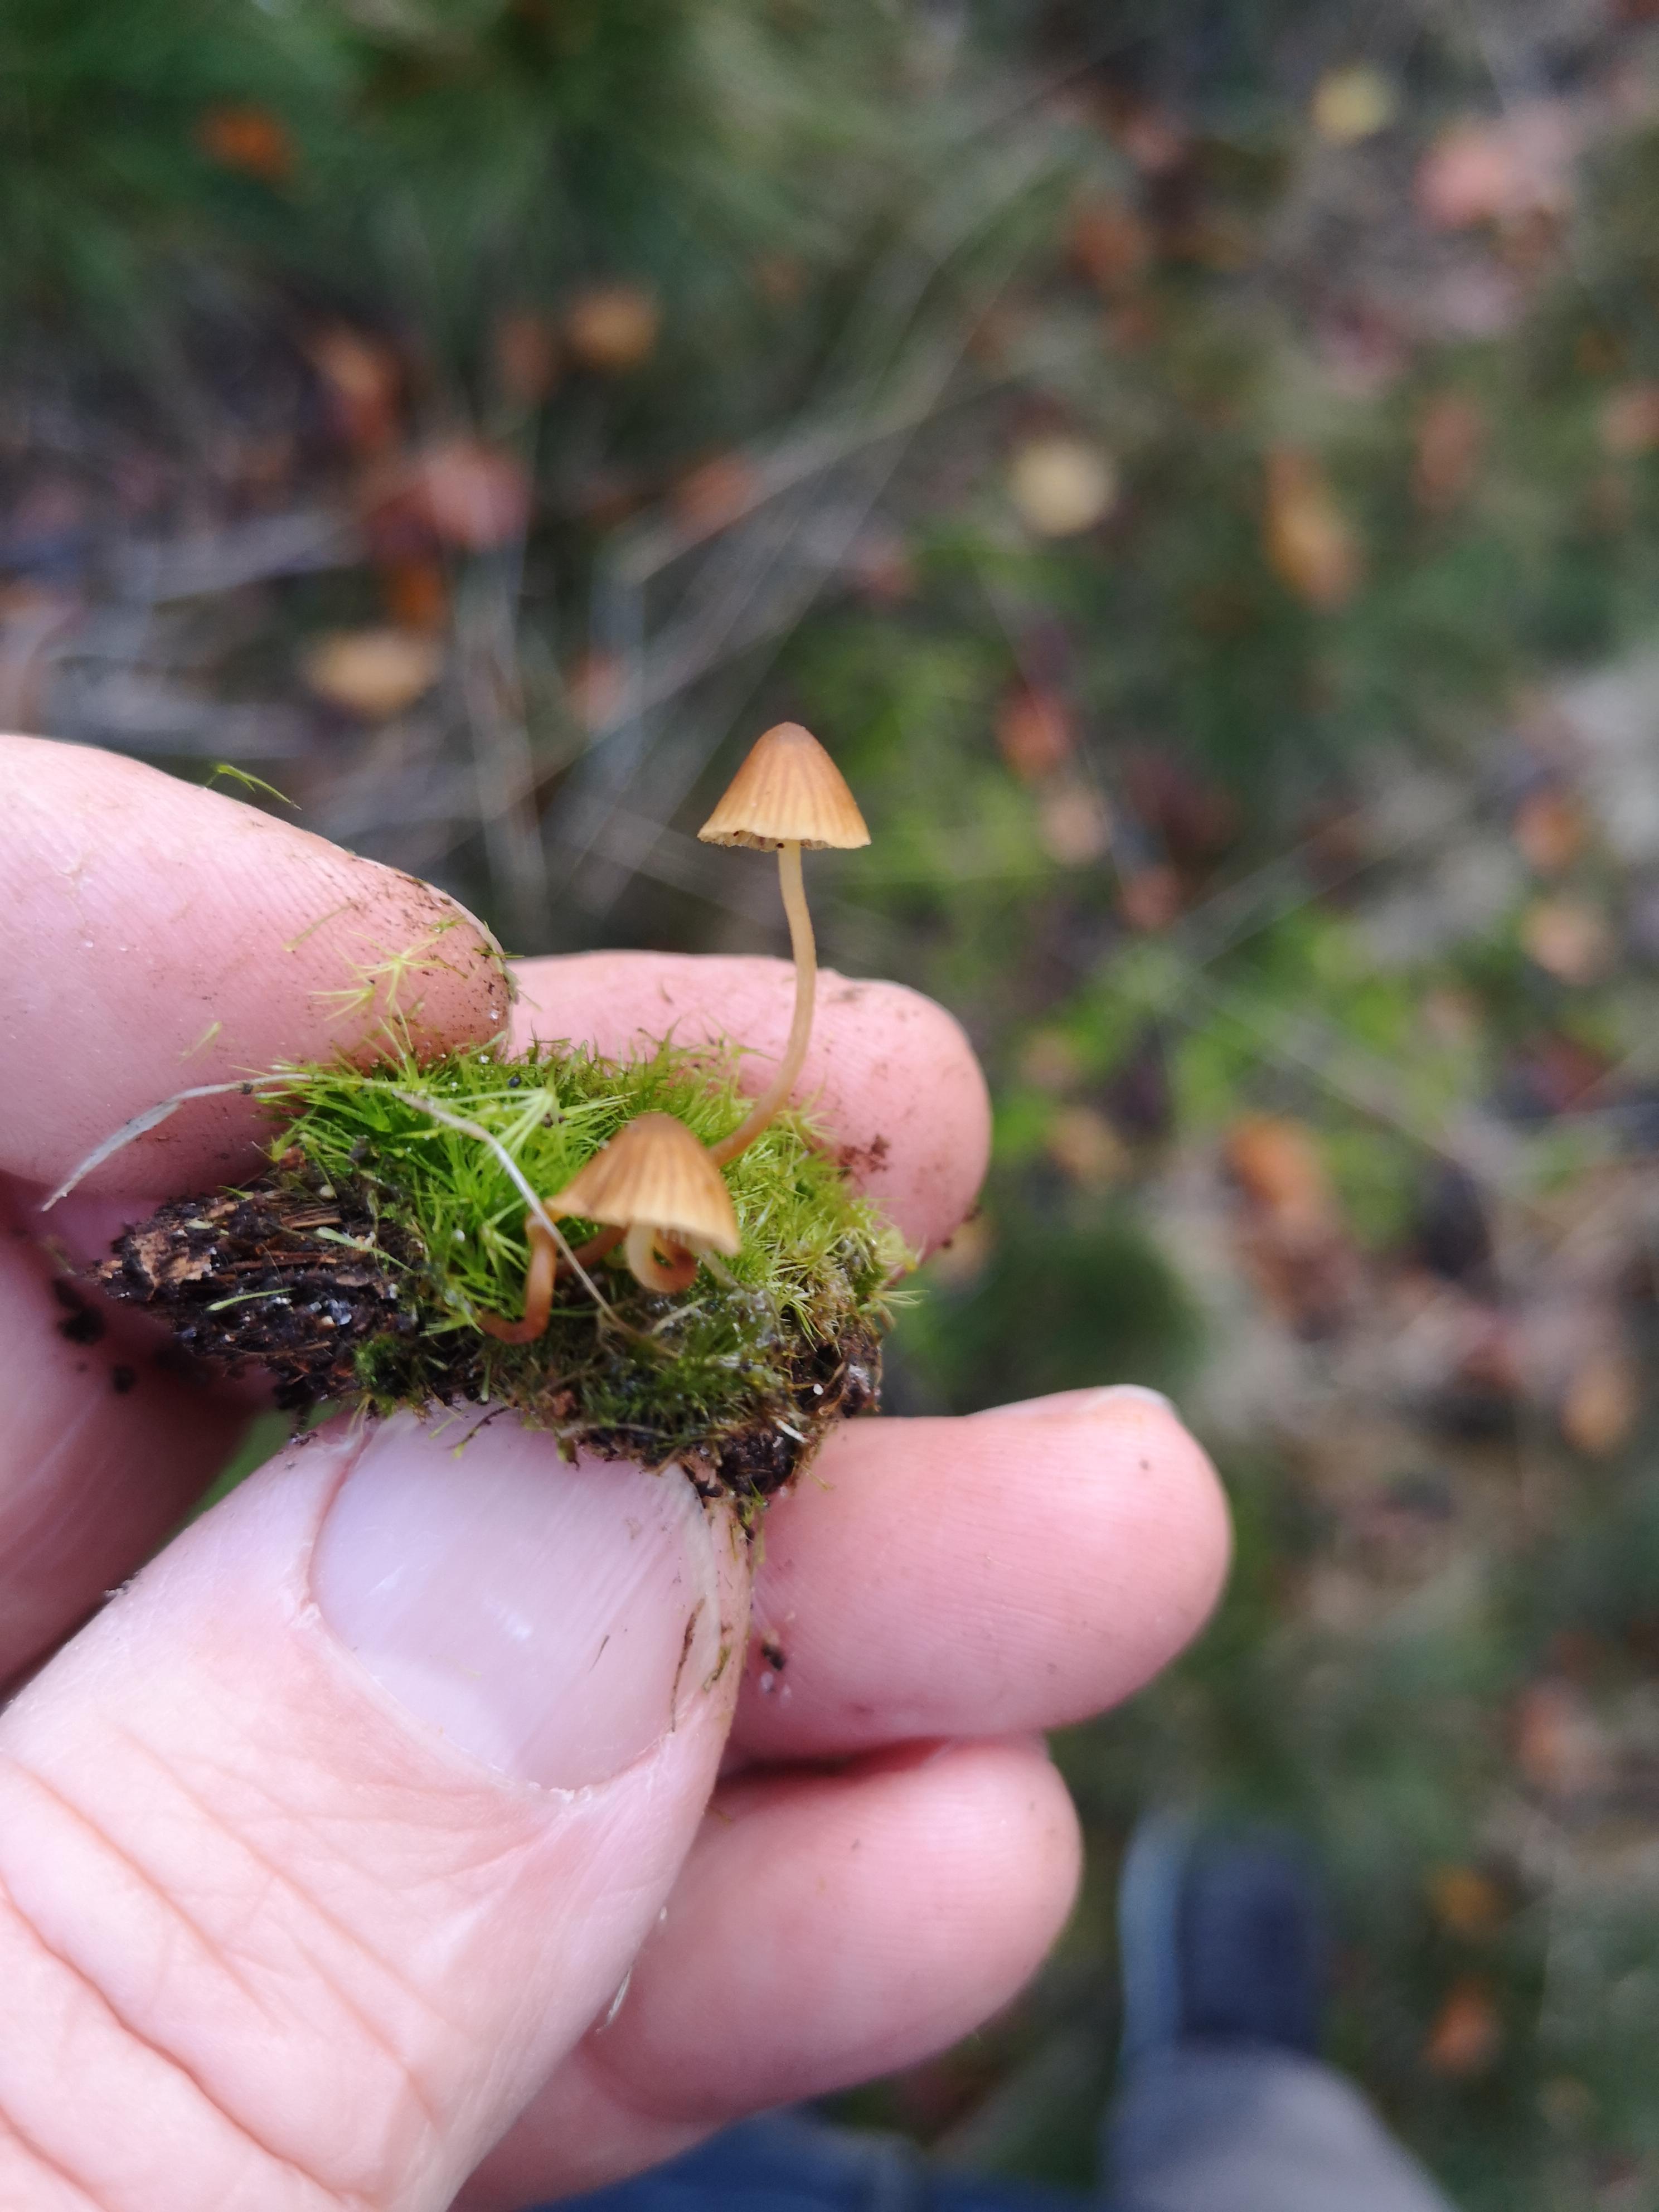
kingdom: Fungi
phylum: Basidiomycota
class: Agaricomycetes
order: Agaricales
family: Hymenogastraceae
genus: Galerina
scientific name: Galerina
